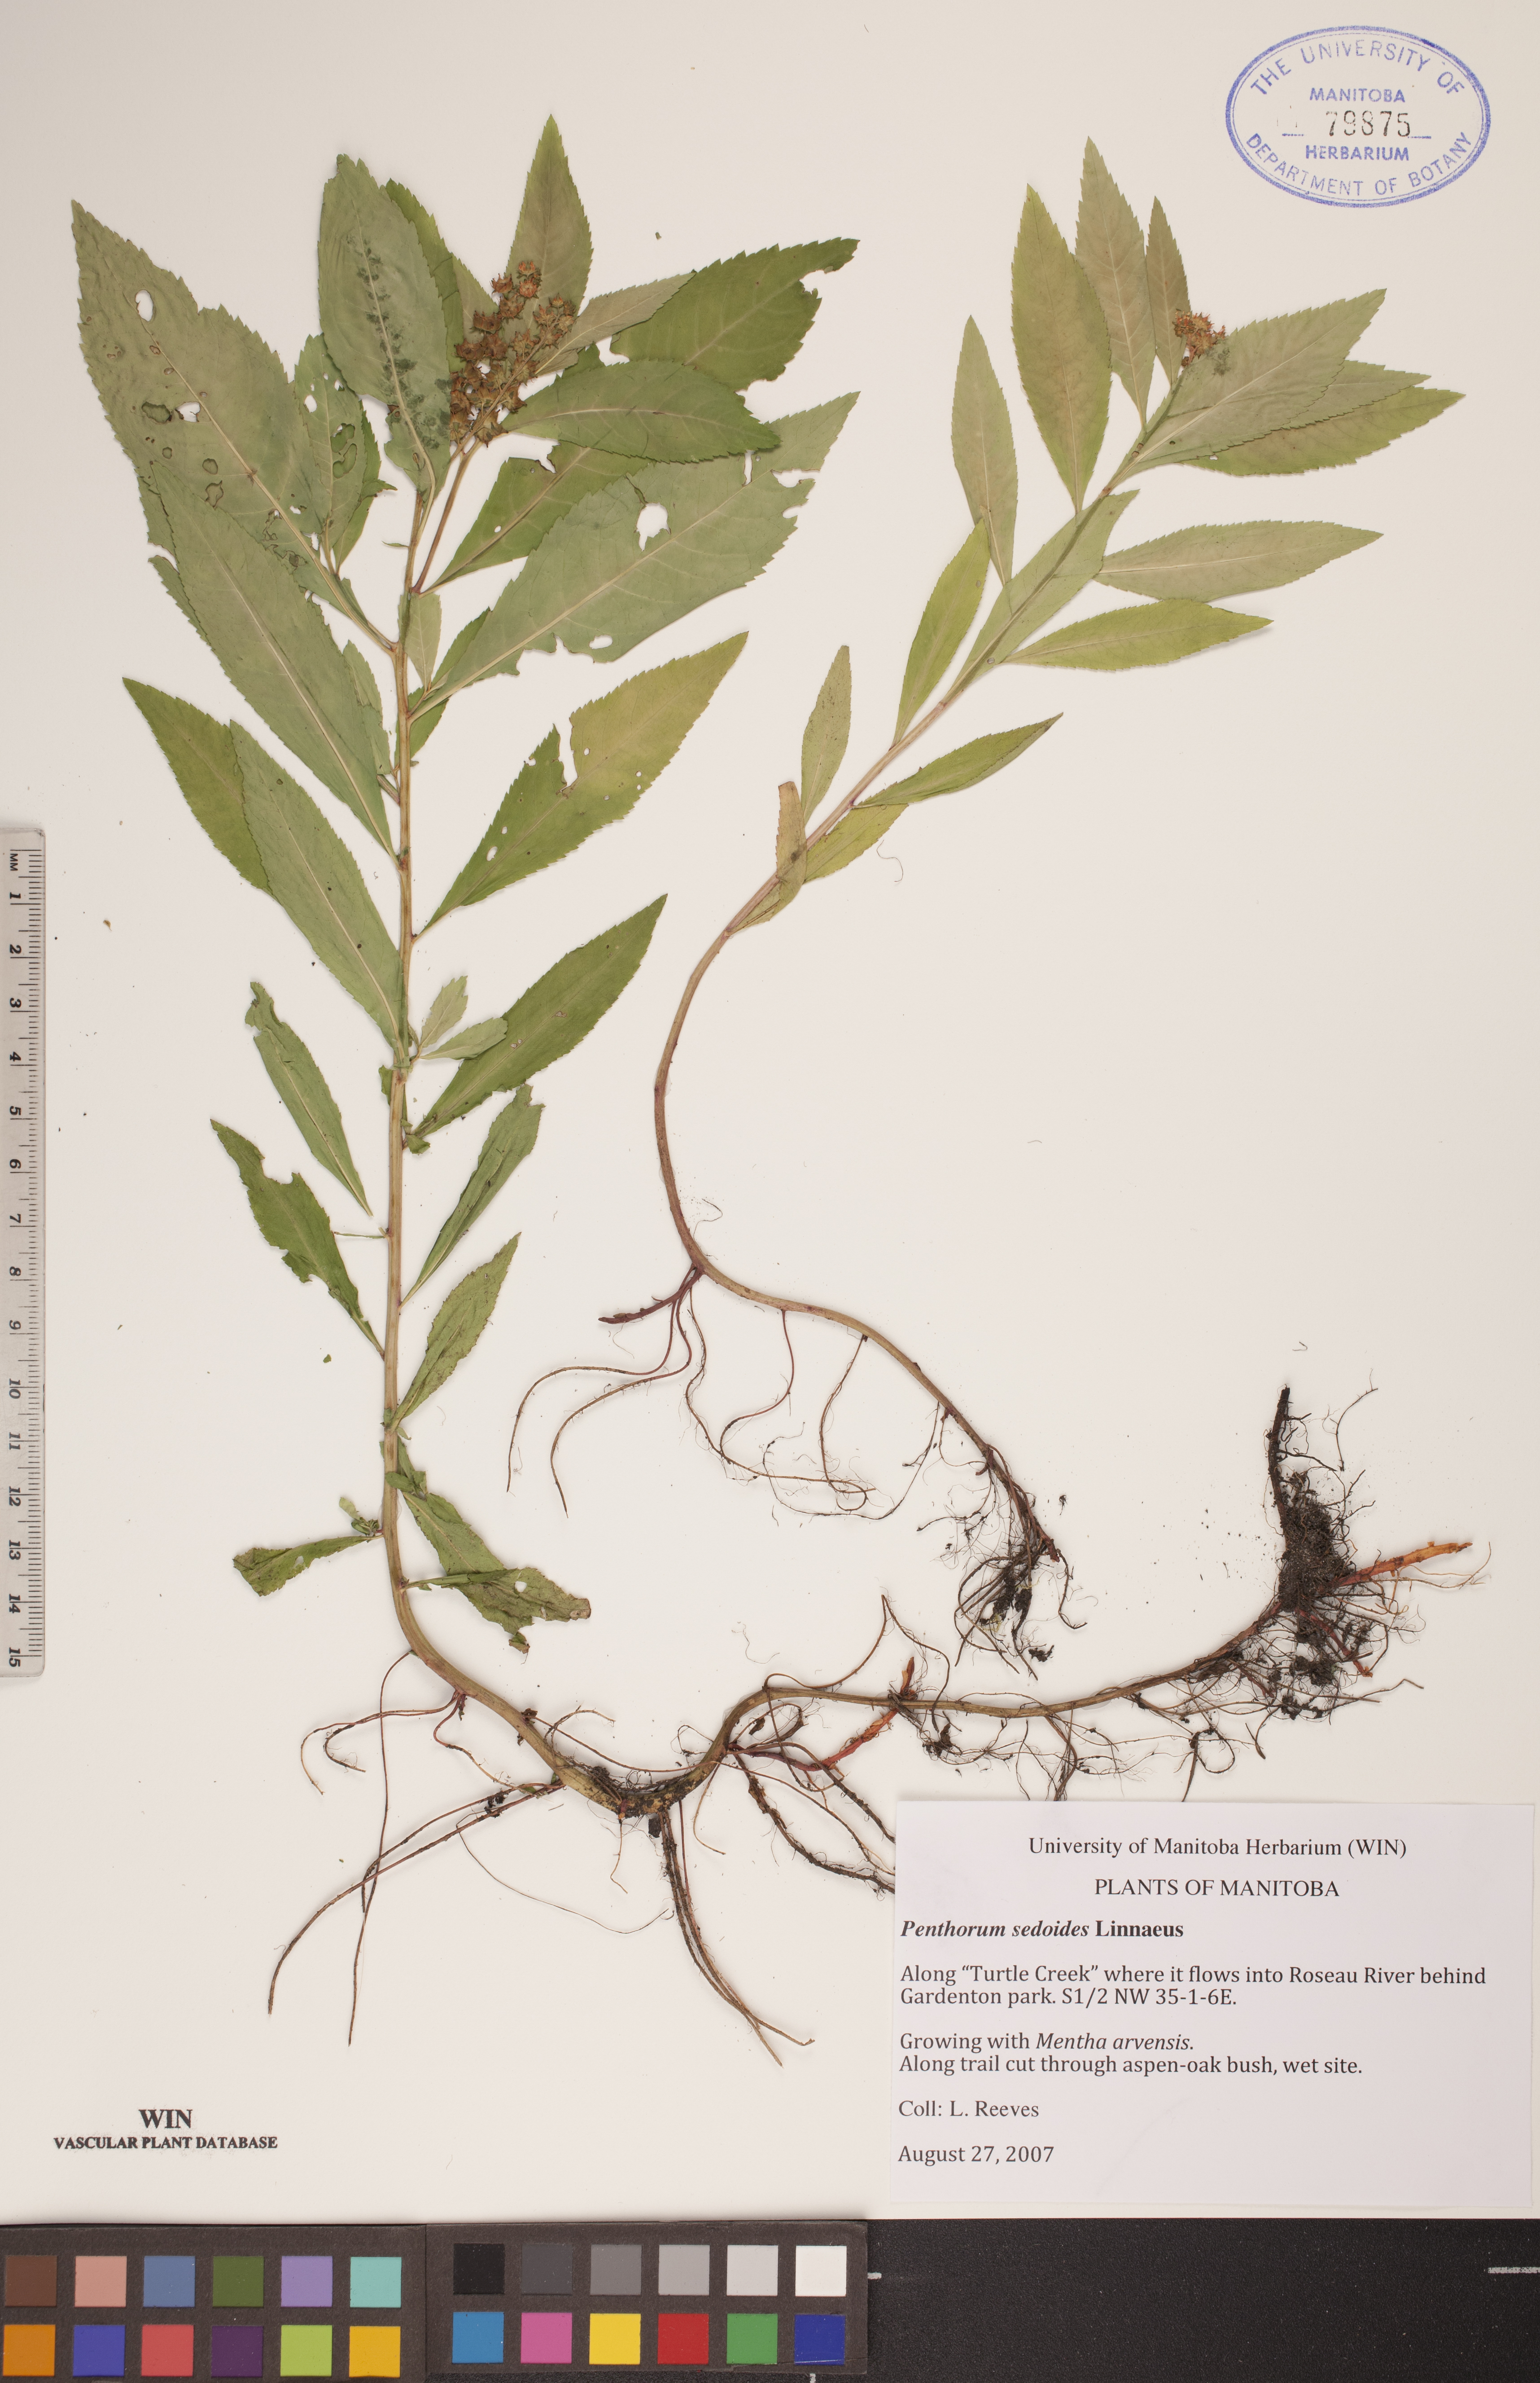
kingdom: Plantae
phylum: Tracheophyta
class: Magnoliopsida
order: Saxifragales
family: Penthoraceae
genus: Penthorum
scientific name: Penthorum sedoides
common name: Ditch stonecrop
